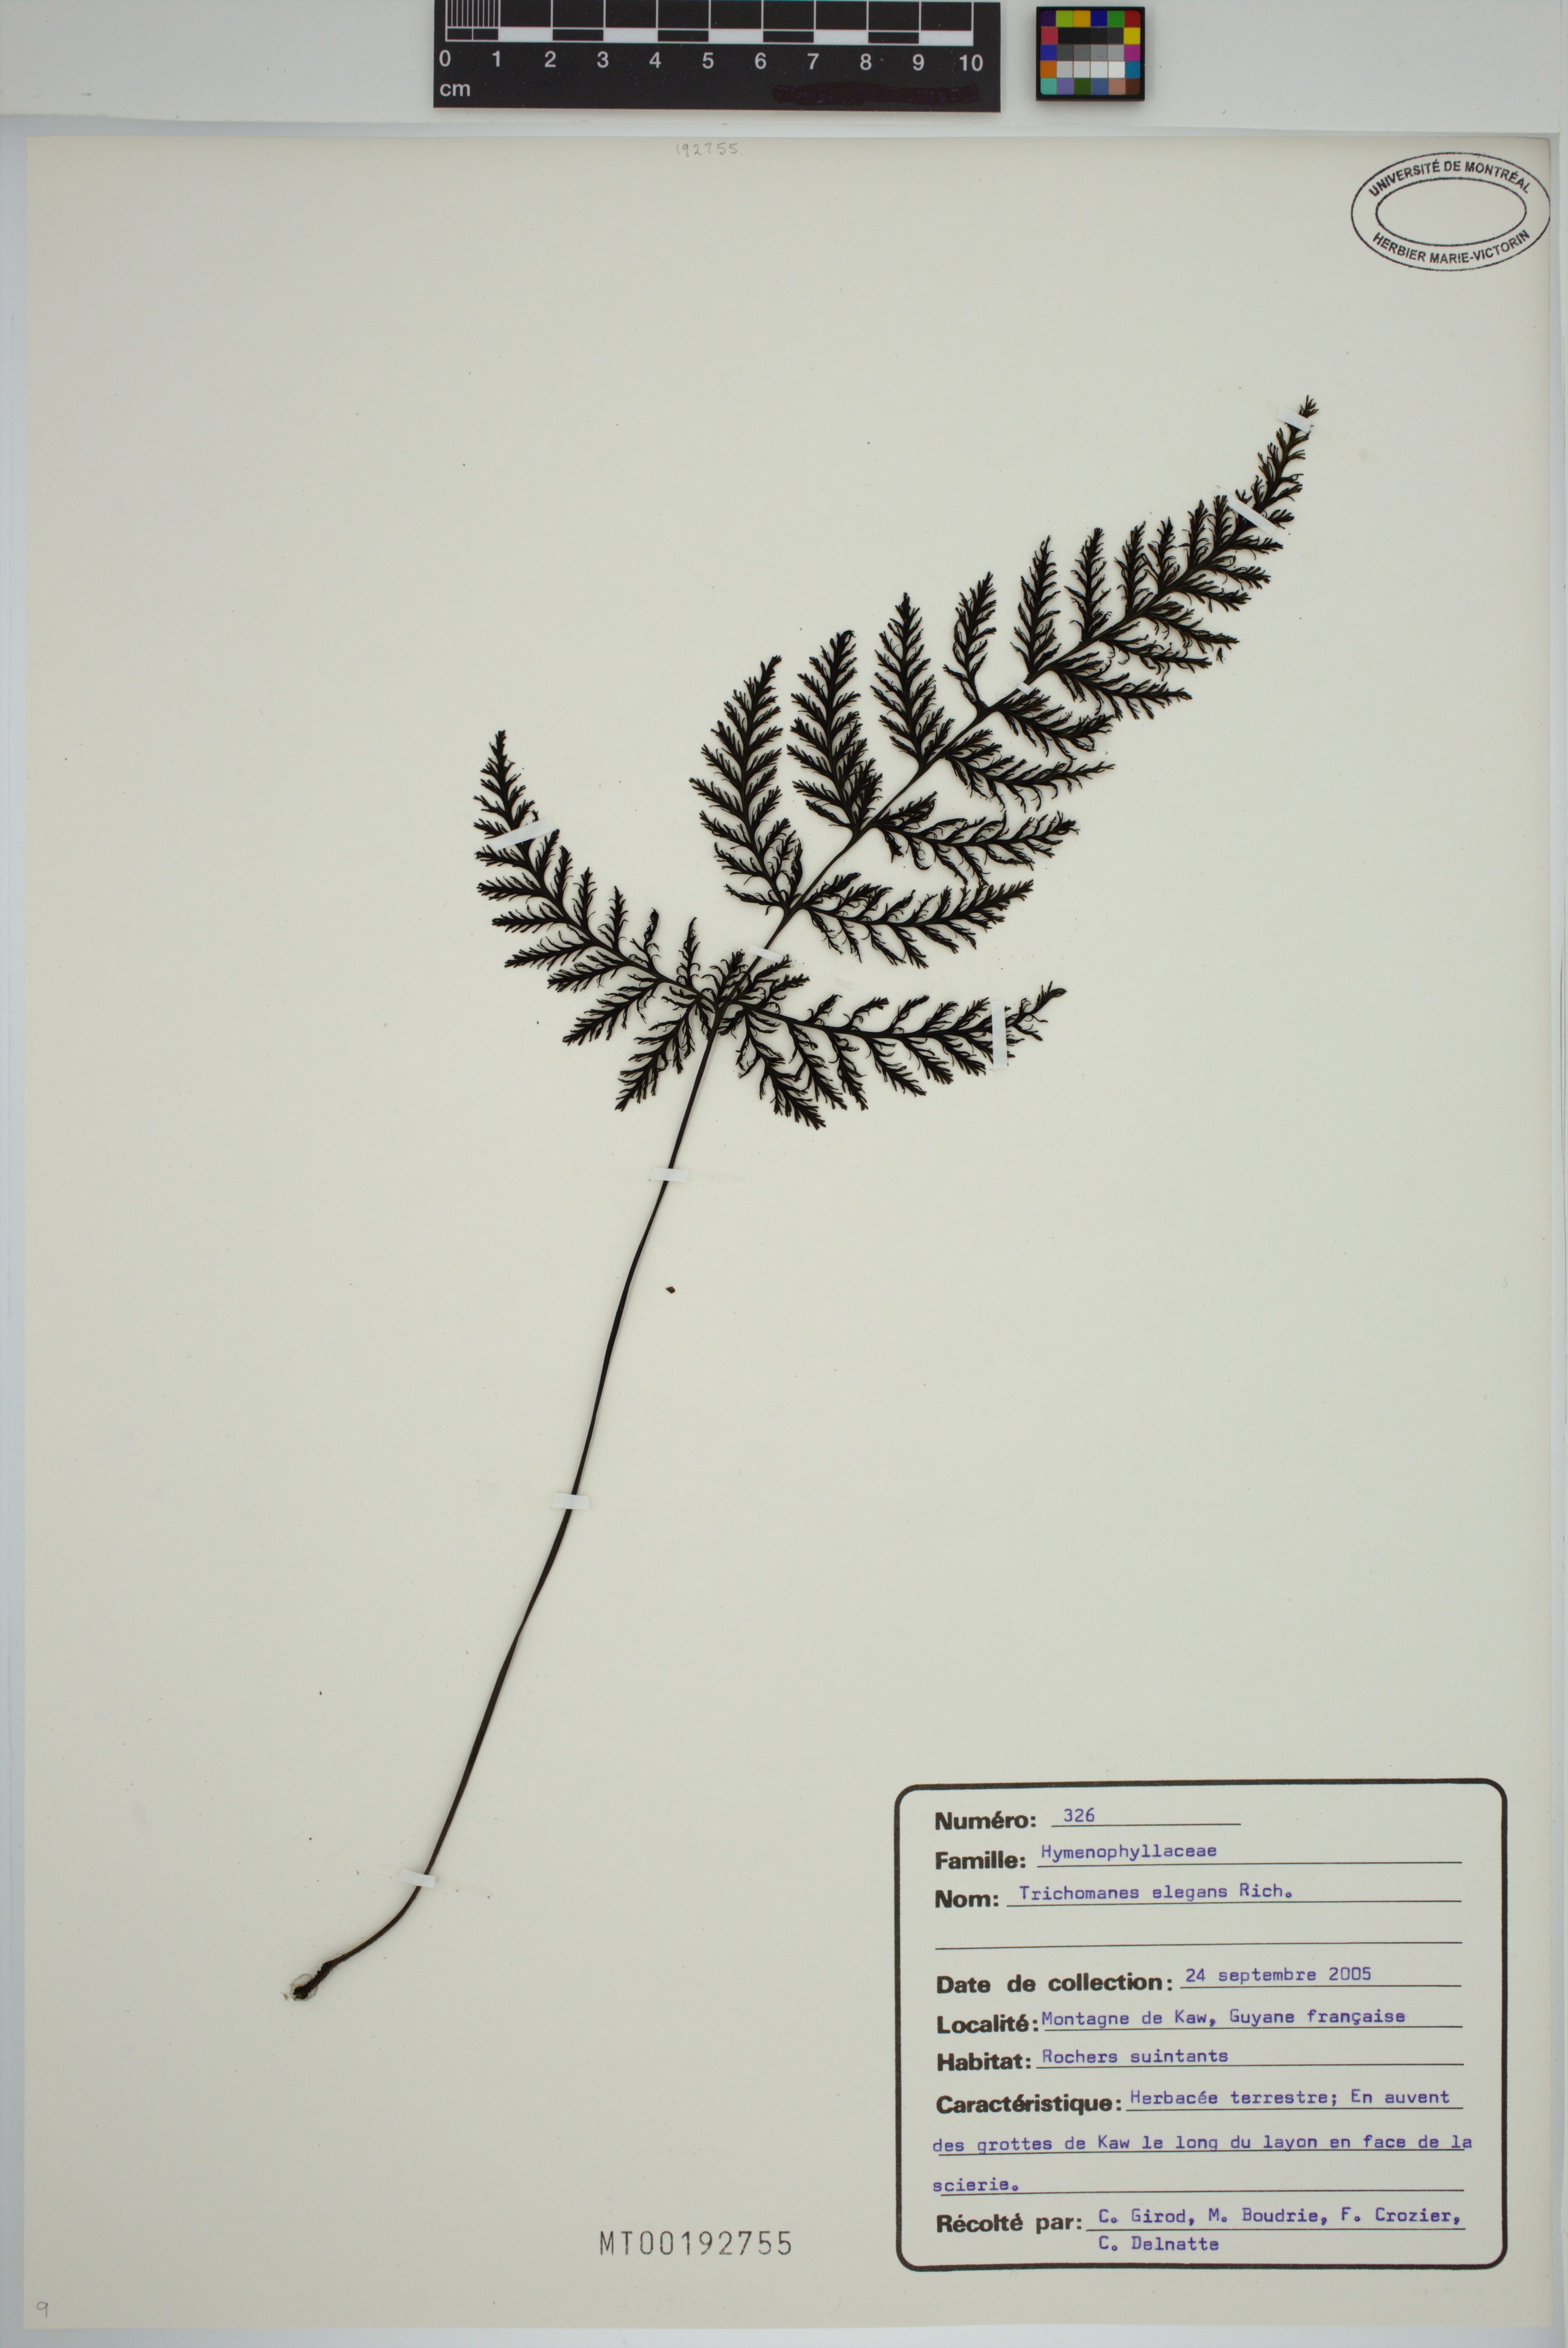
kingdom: Plantae
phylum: Tracheophyta
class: Polypodiopsida
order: Hymenophyllales
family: Hymenophyllaceae
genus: Trichomanes
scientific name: Trichomanes elegans
